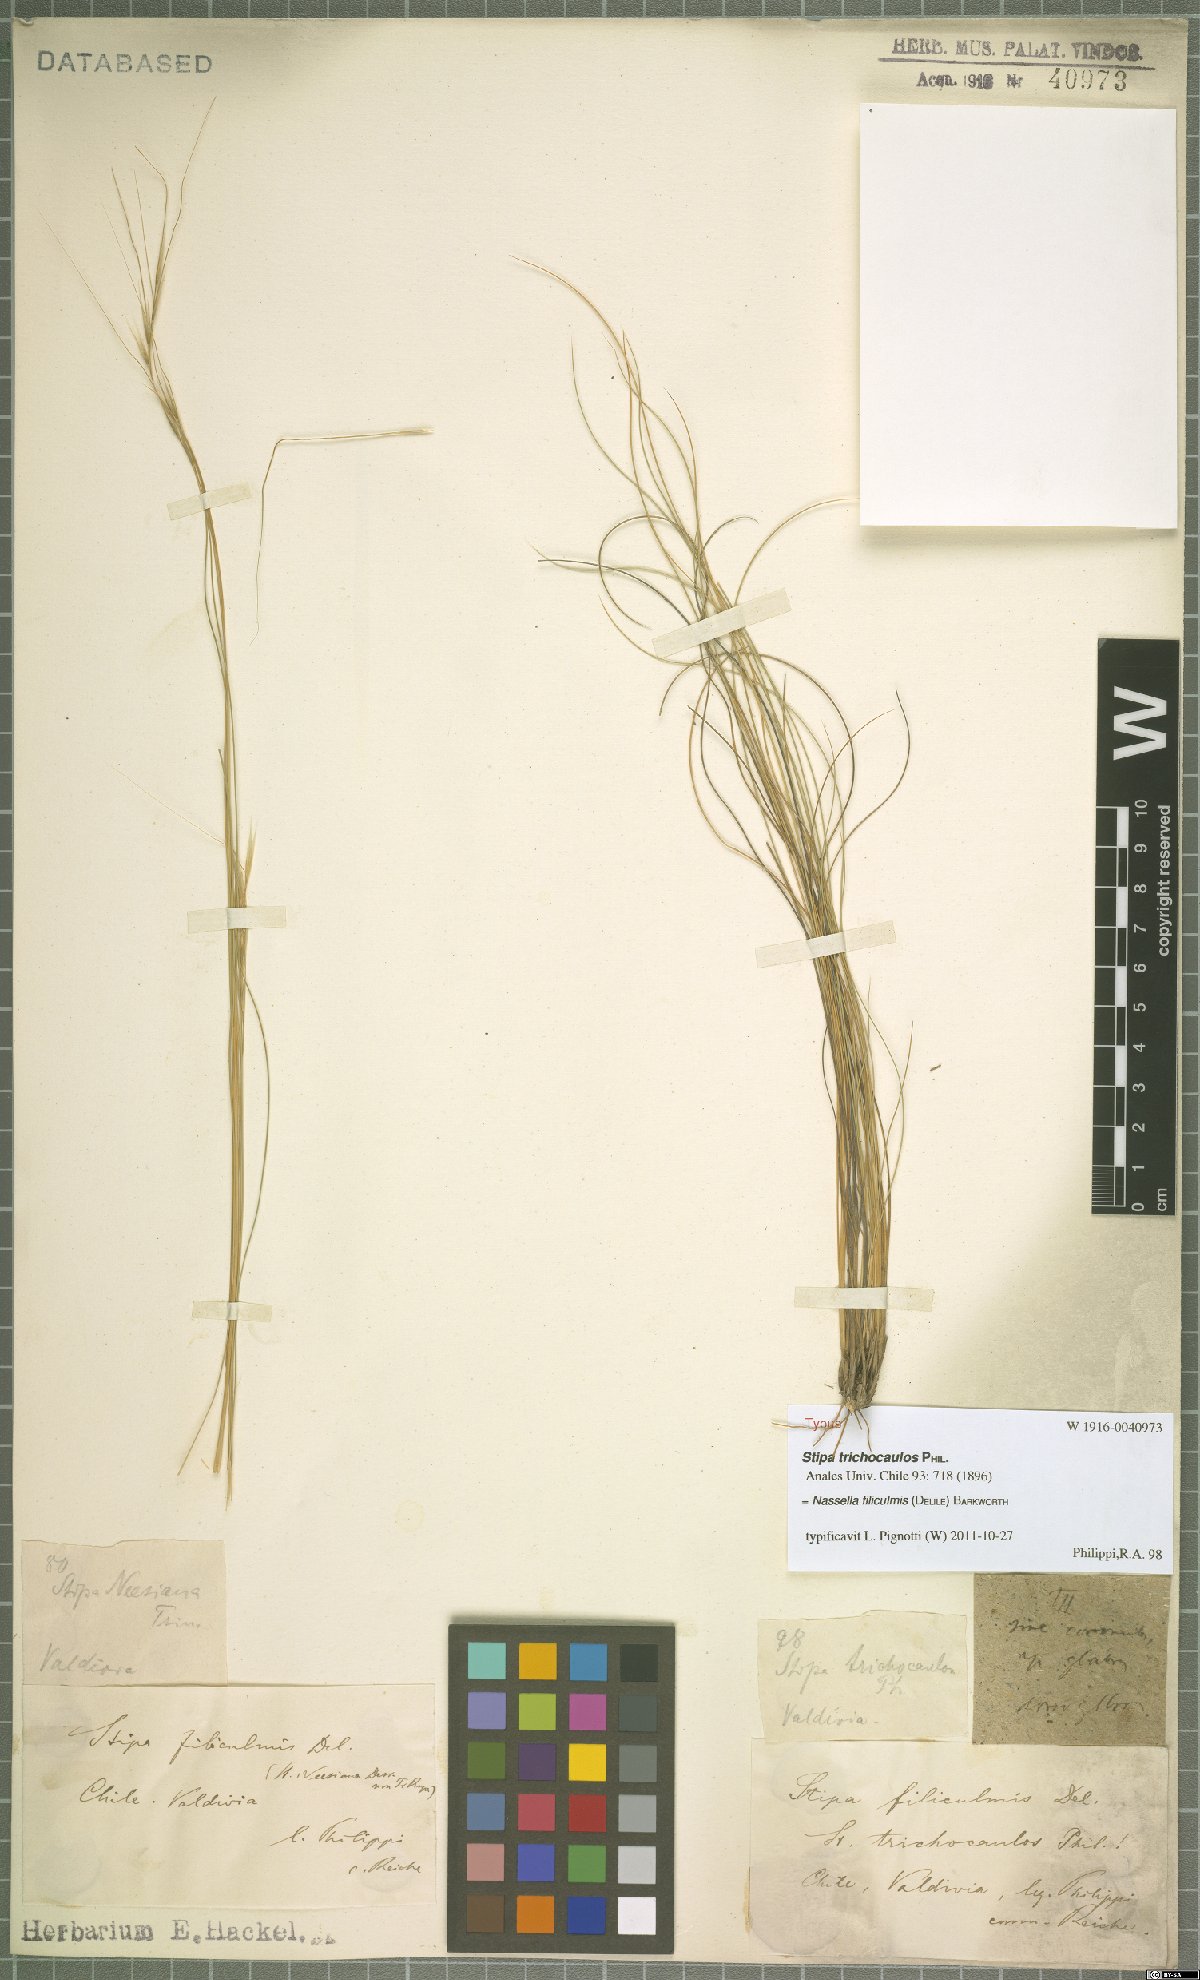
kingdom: Plantae
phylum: Tracheophyta
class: Liliopsida
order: Poales
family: Poaceae
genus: Nassella
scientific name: Nassella filiculmis
